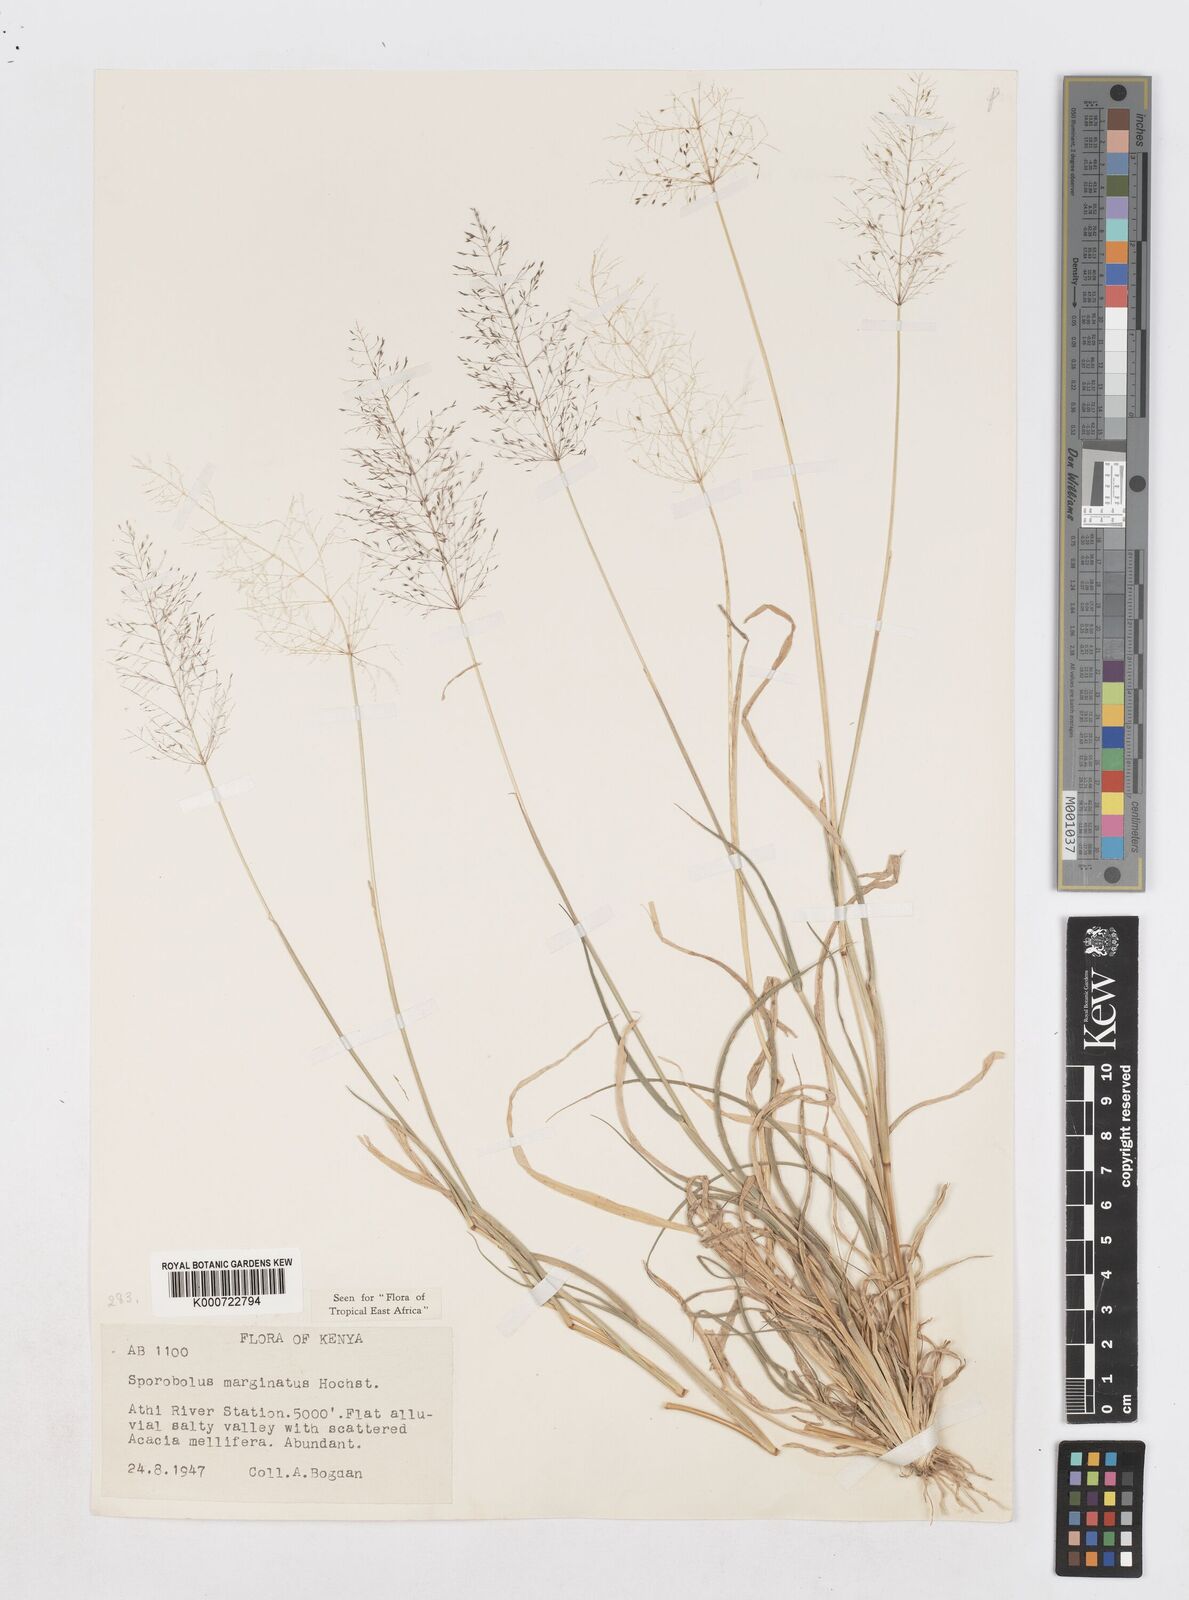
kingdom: Plantae
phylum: Tracheophyta
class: Liliopsida
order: Poales
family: Poaceae
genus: Sporobolus
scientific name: Sporobolus ioclados
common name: Pan dropseed
